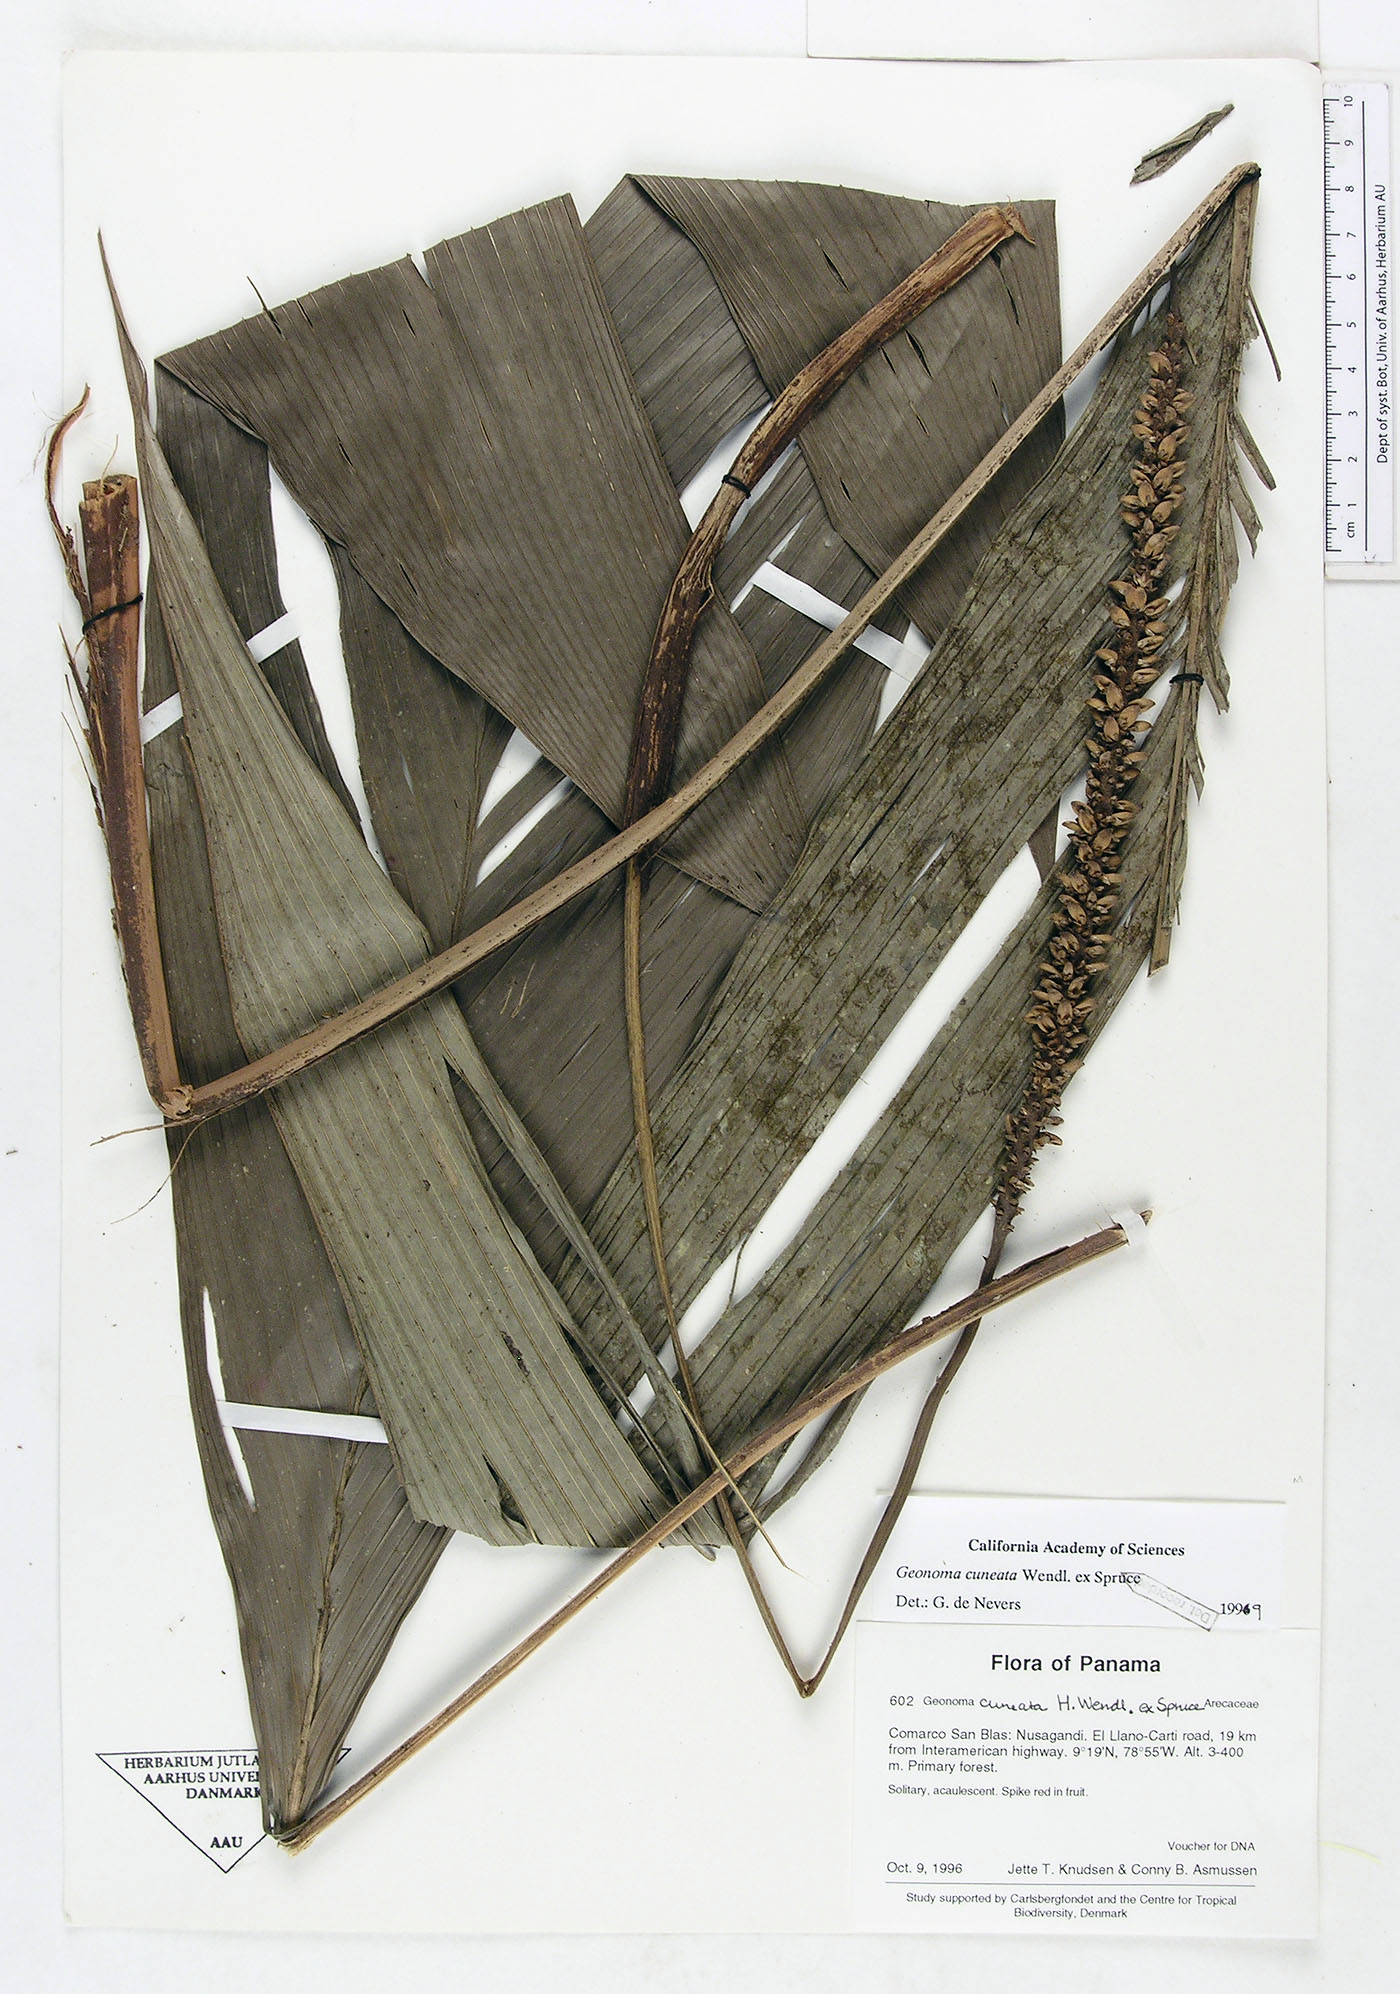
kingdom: Plantae
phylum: Tracheophyta
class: Liliopsida
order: Arecales
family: Arecaceae
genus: Geonoma
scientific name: Geonoma cuneata
